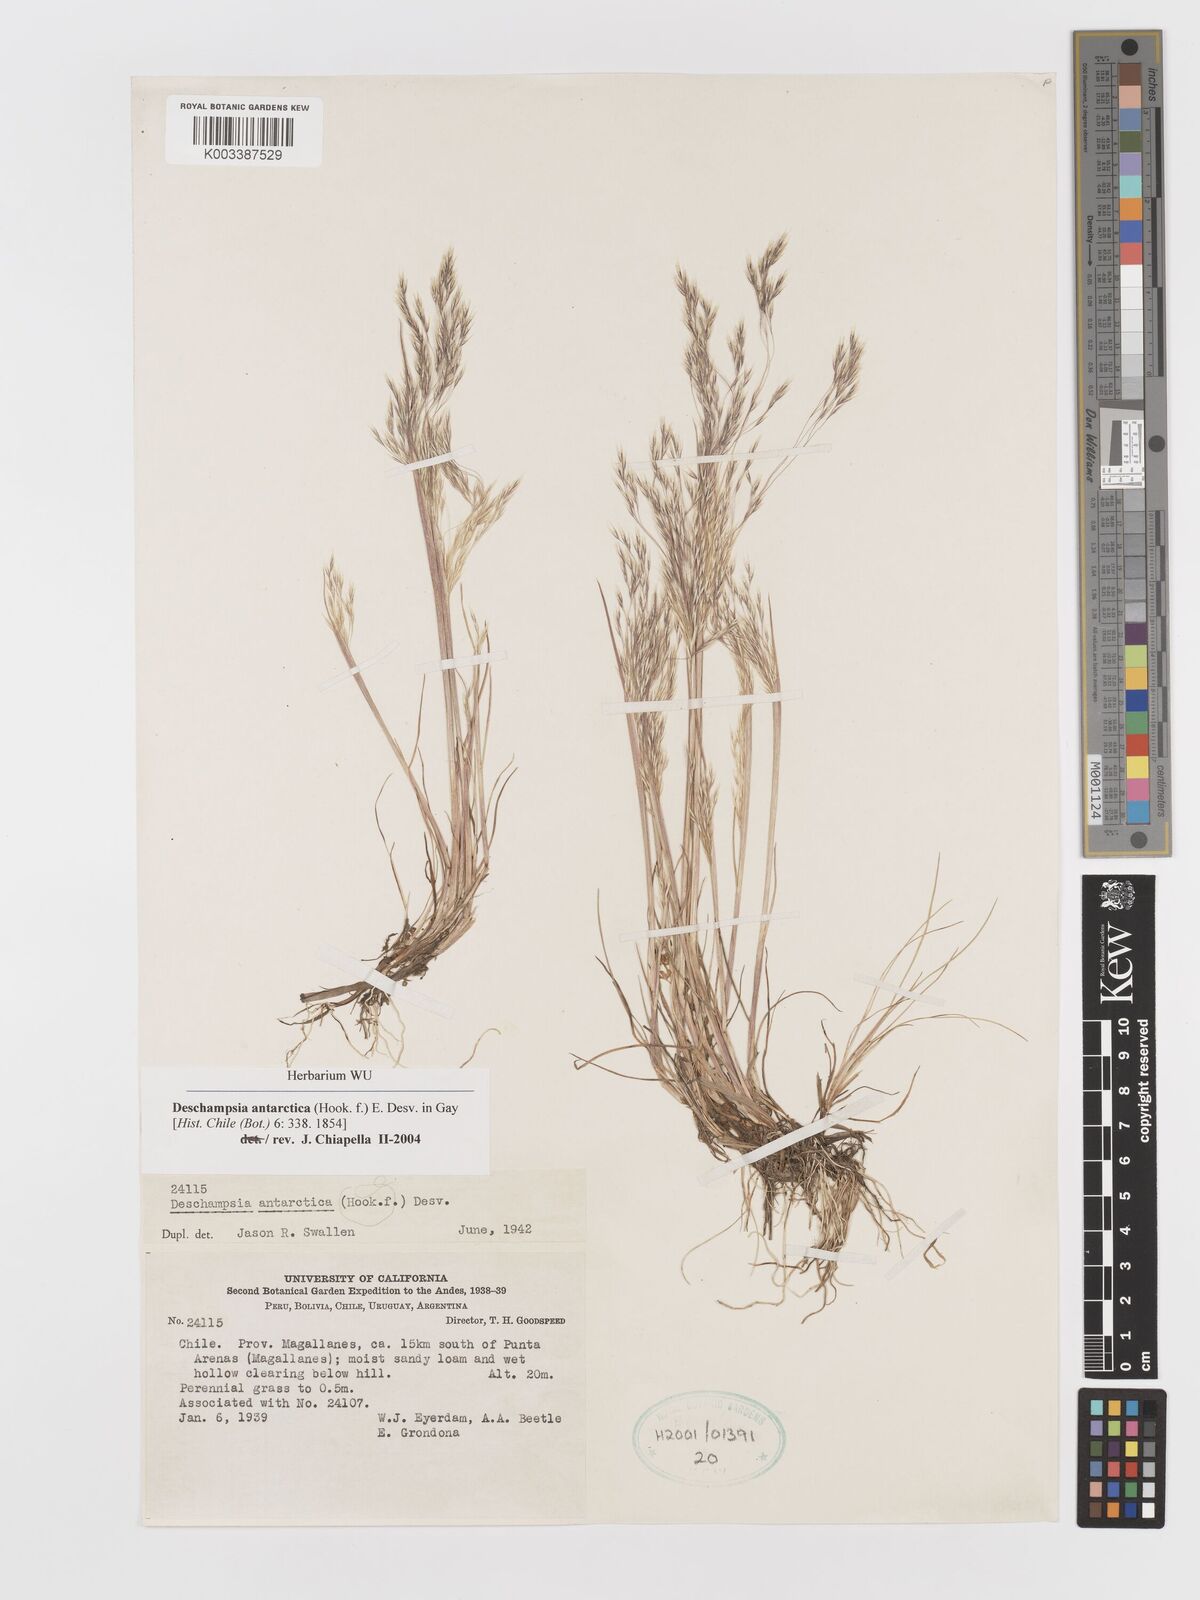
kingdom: Plantae
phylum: Tracheophyta
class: Liliopsida
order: Poales
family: Poaceae
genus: Deschampsia
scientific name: Deschampsia antarctica
